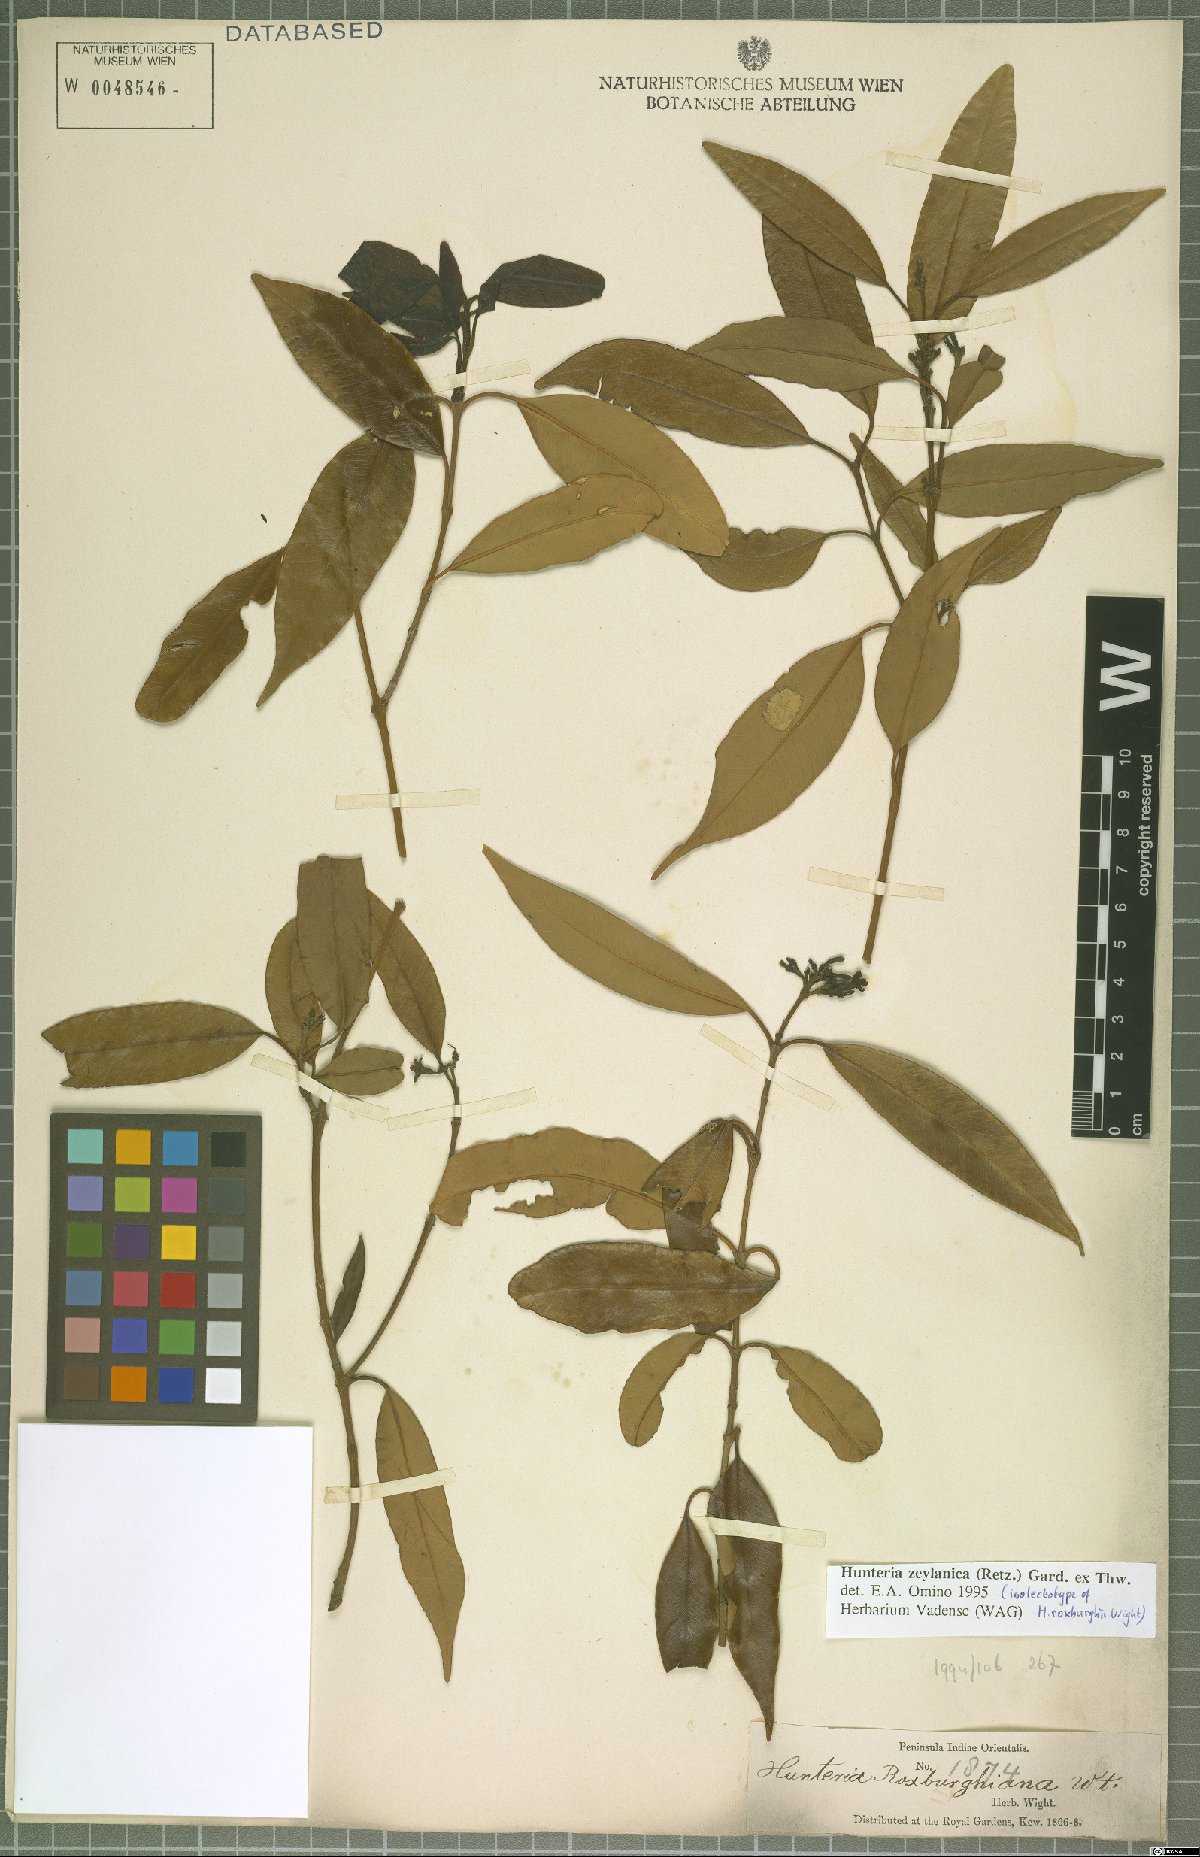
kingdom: Plantae
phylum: Tracheophyta
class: Magnoliopsida
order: Gentianales
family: Apocynaceae
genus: Hunteria
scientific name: Hunteria zeylanica
